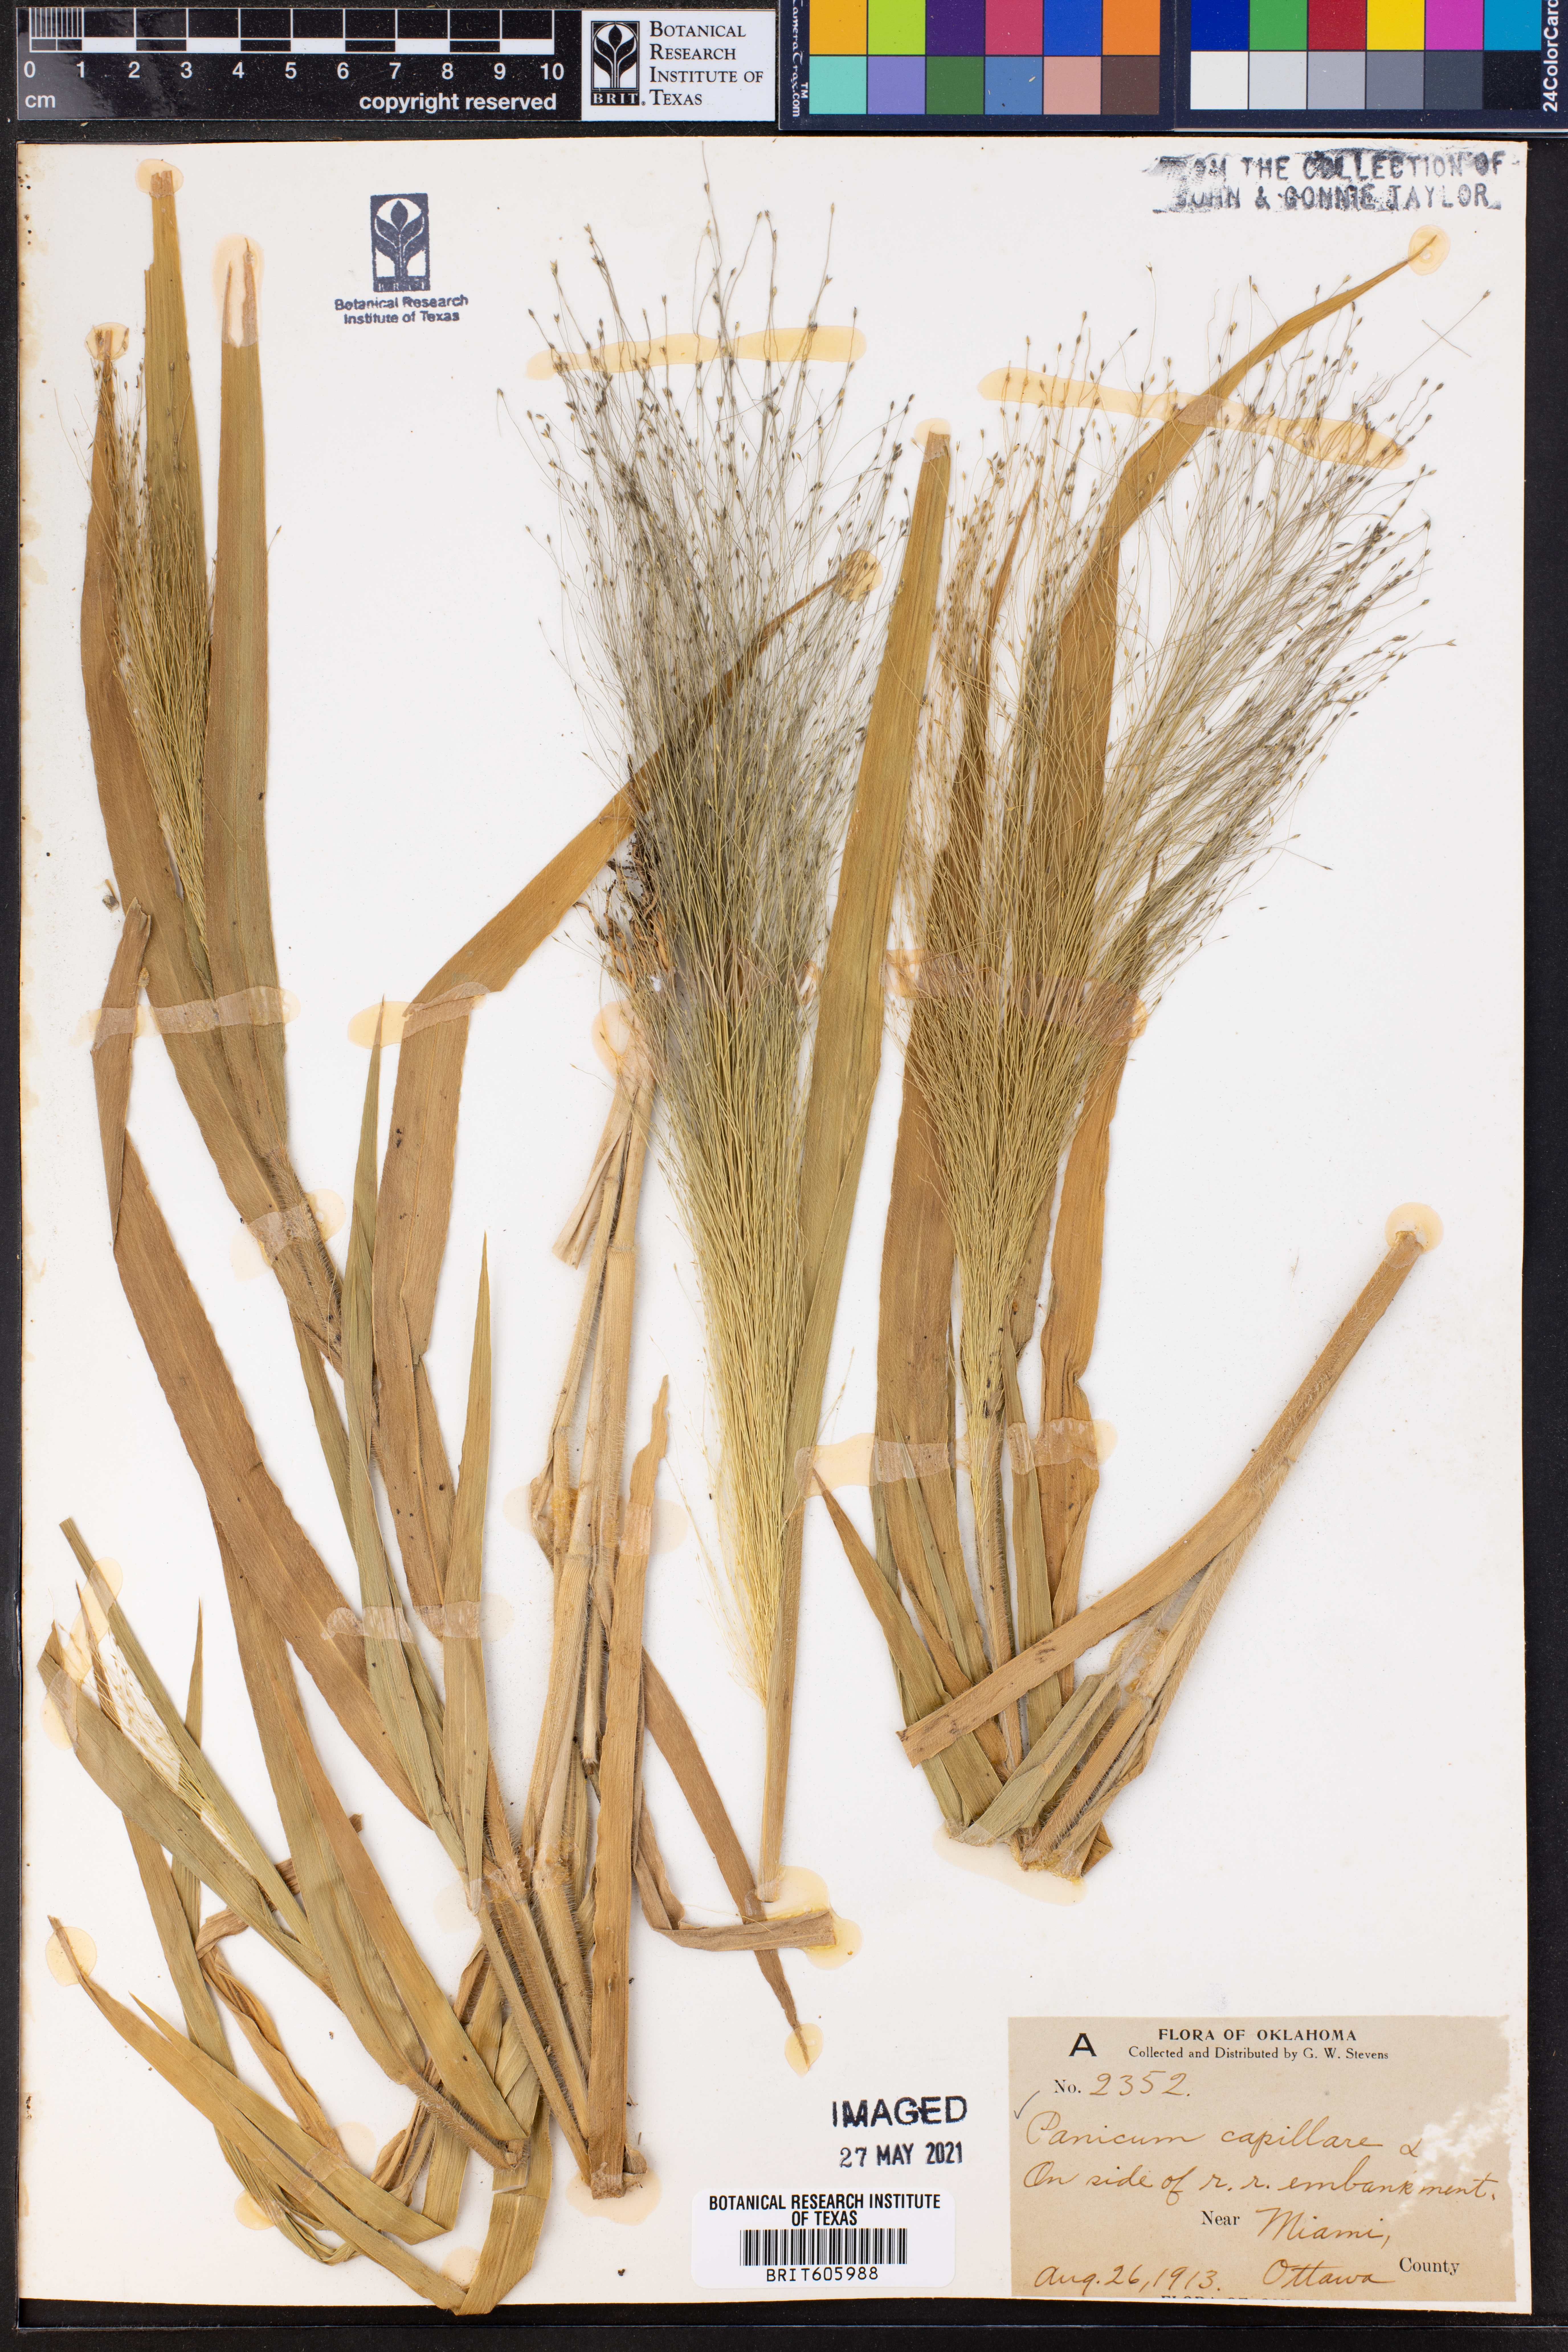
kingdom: Plantae
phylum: Tracheophyta
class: Liliopsida
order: Poales
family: Poaceae
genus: Panicum
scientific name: Panicum capillare
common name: Witch-grass
